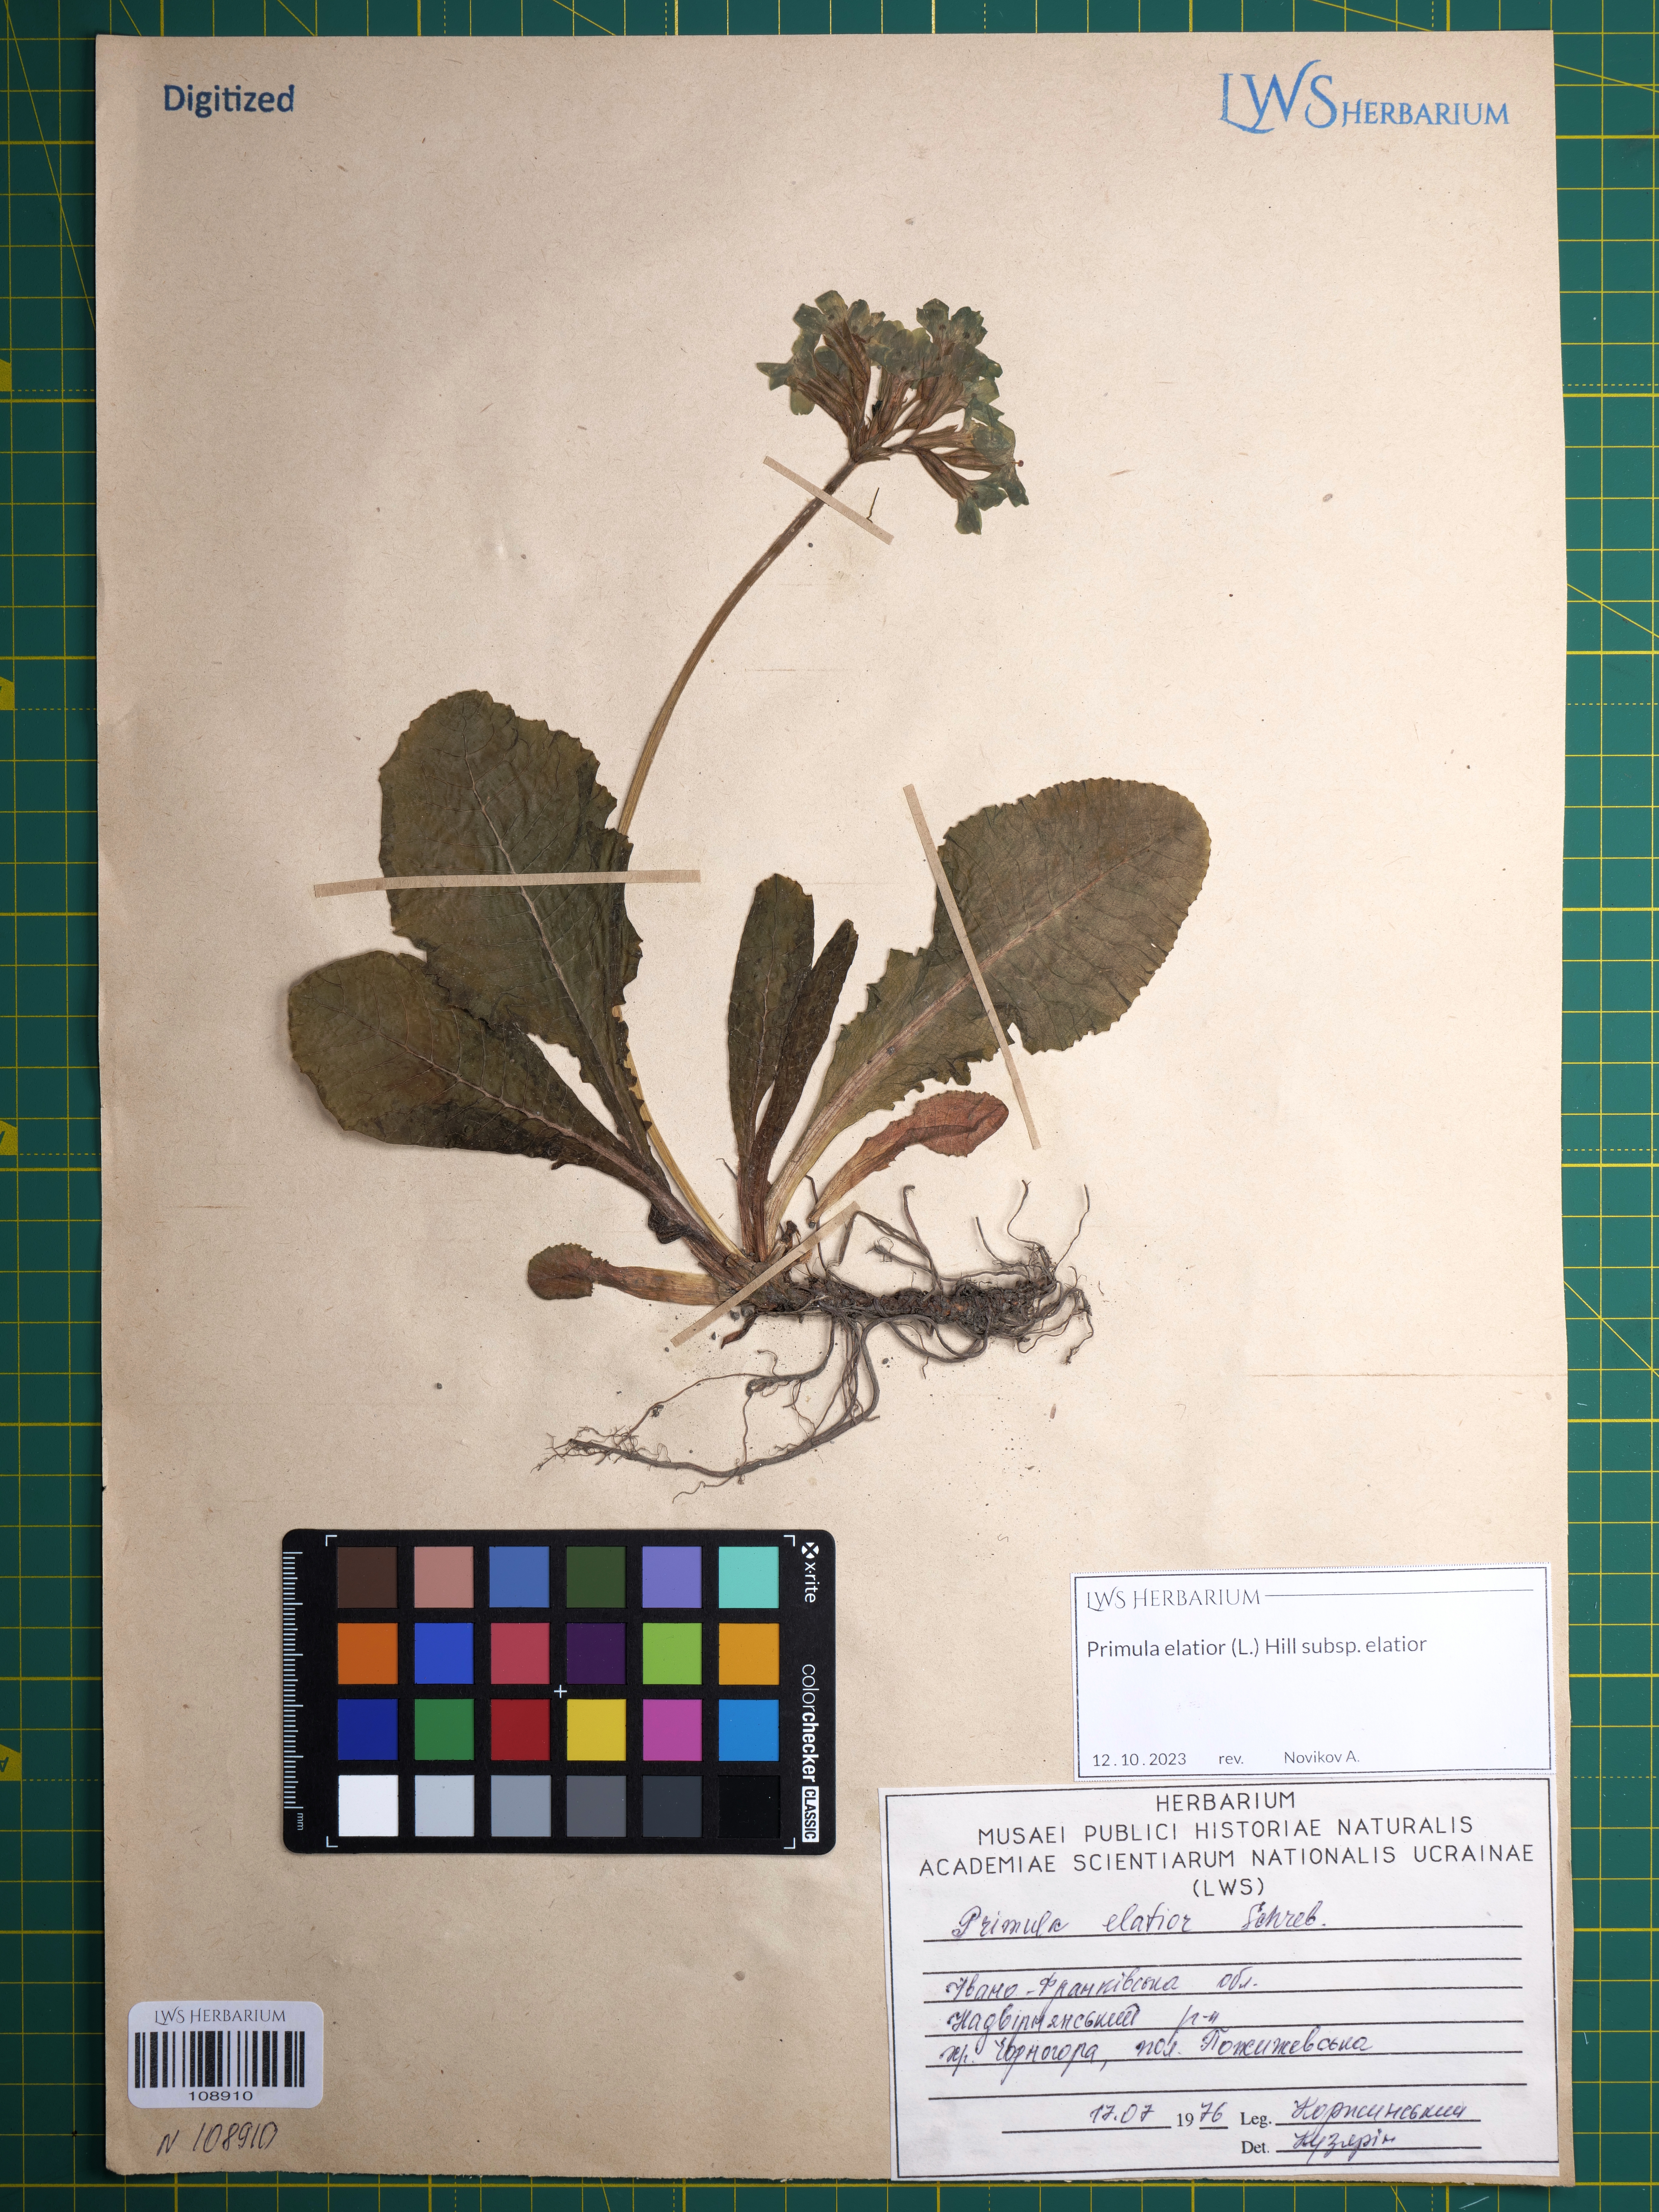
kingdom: Plantae
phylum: Tracheophyta
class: Magnoliopsida
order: Ericales
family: Primulaceae
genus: Primula
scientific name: Primula elatior
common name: Oxlip
